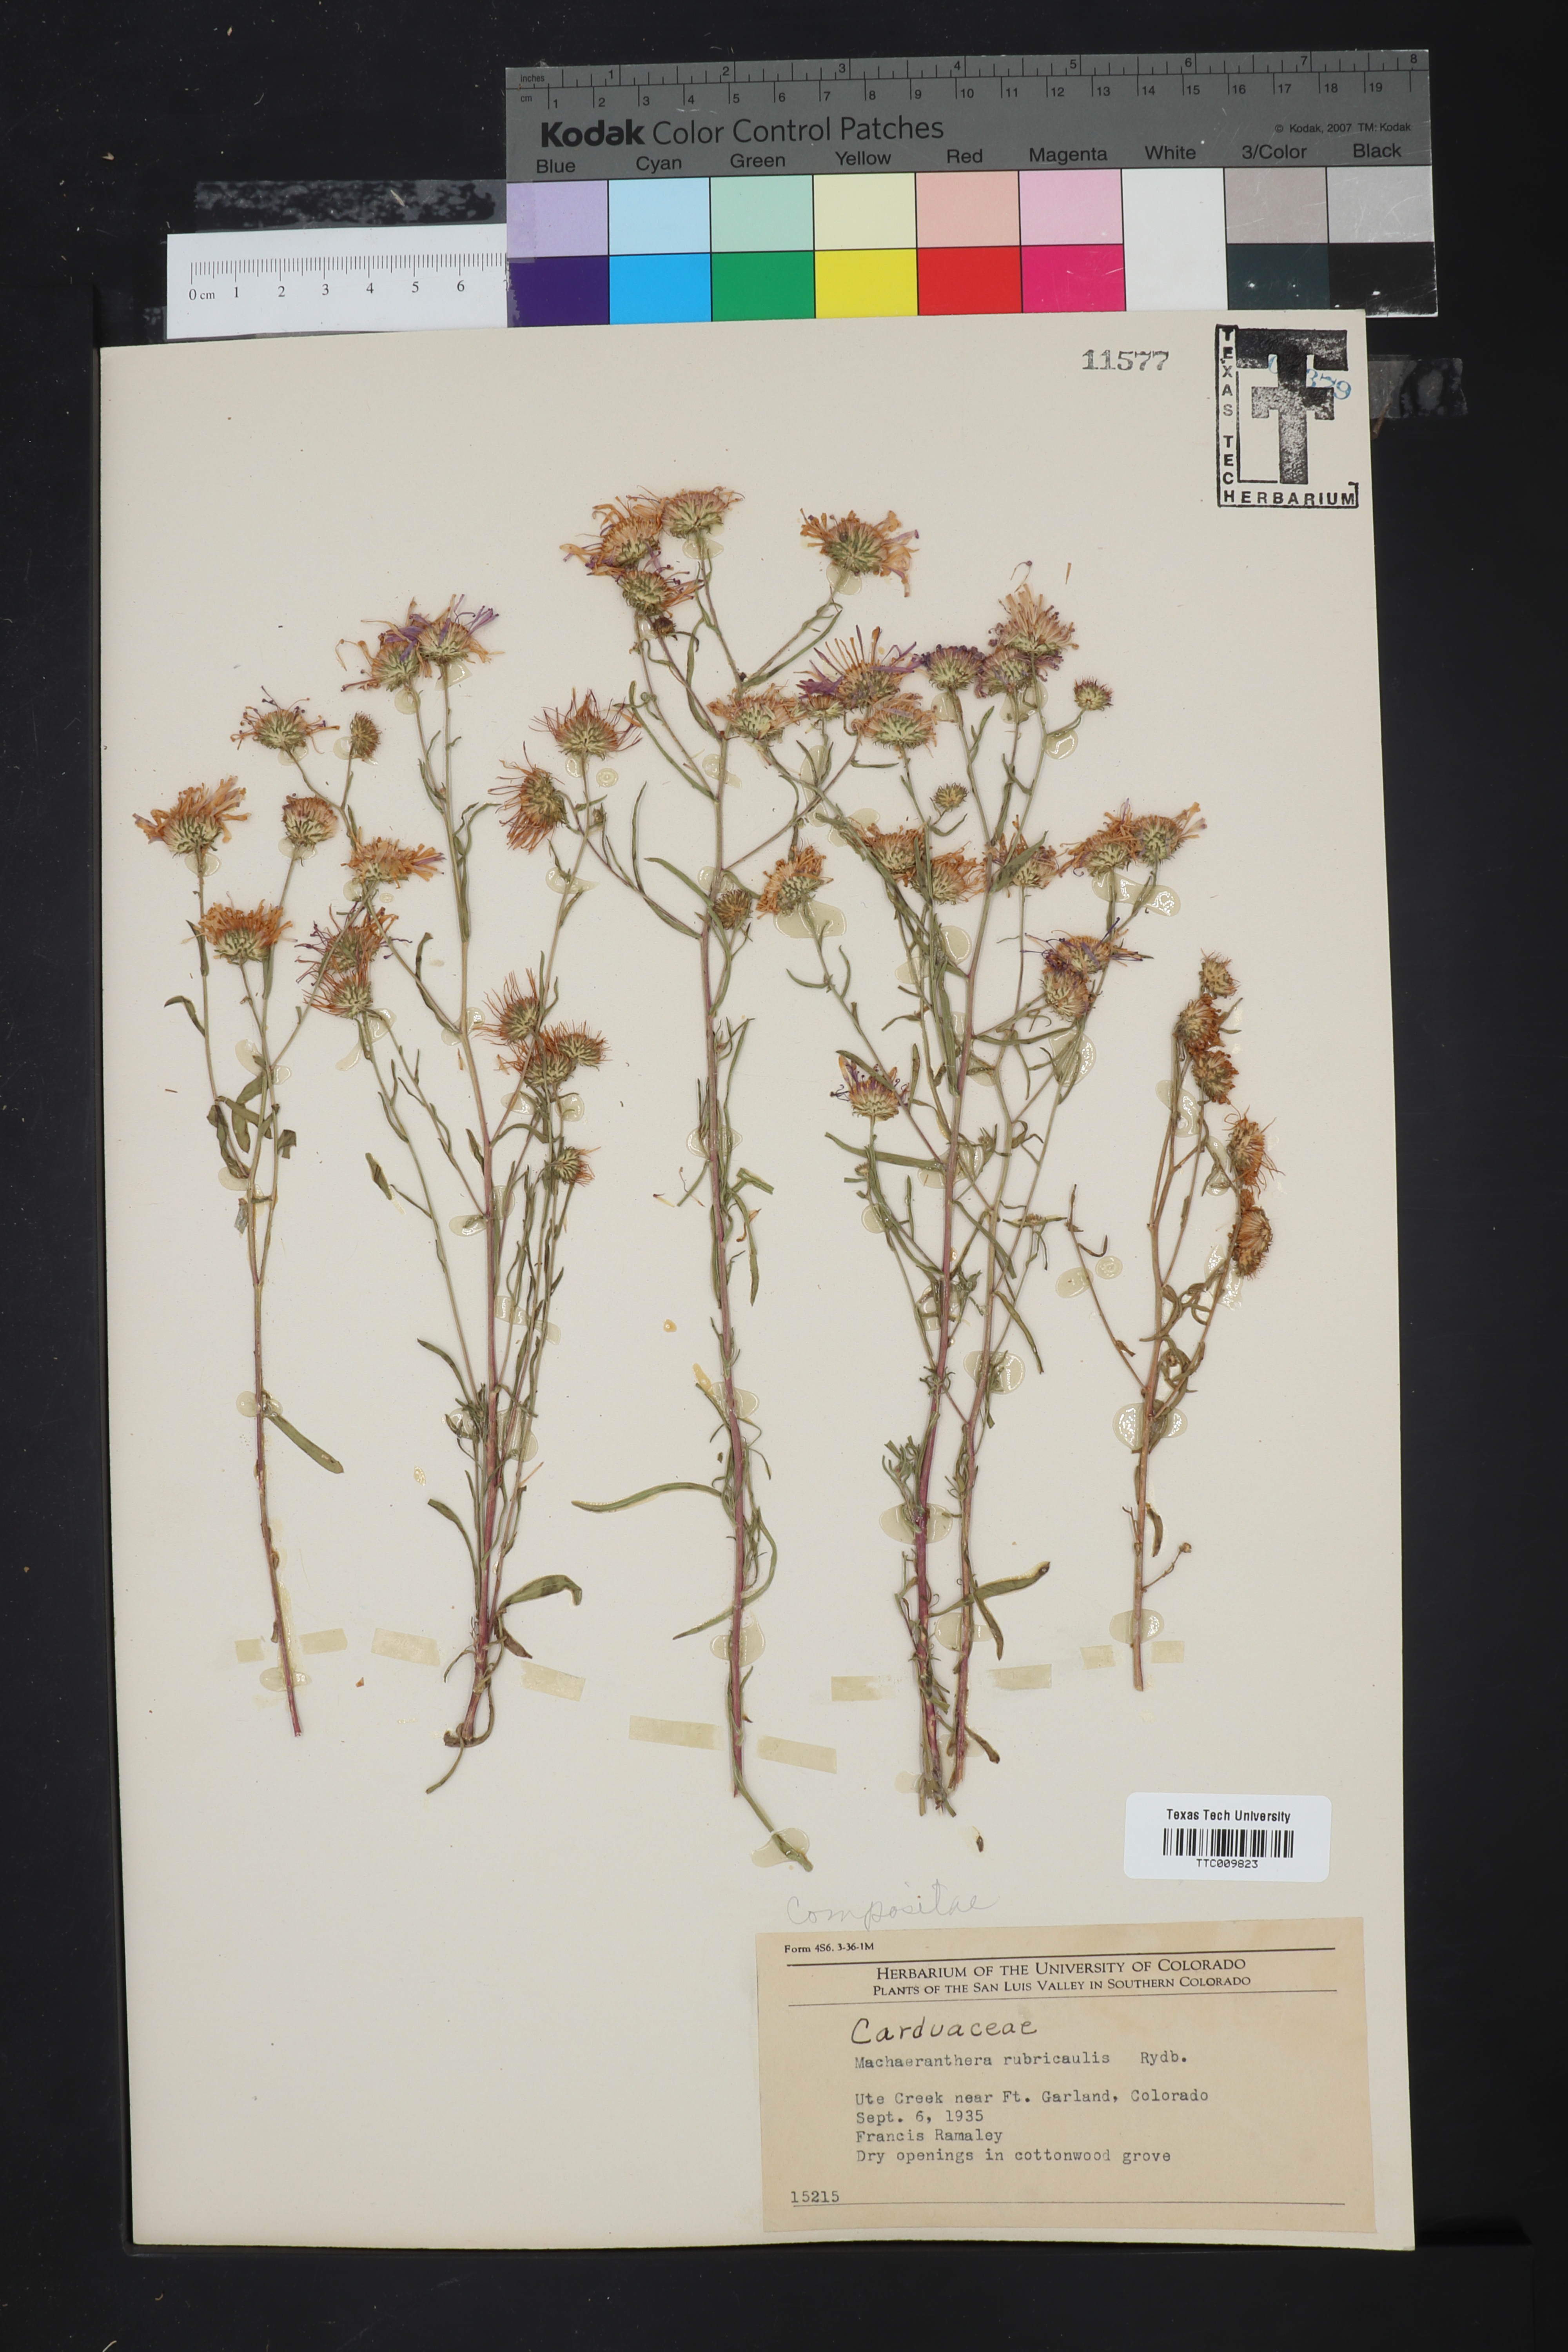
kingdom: Plantae
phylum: Tracheophyta
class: Magnoliopsida
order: Asterales
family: Asteraceae
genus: Dieteria
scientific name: Dieteria bigelovii
